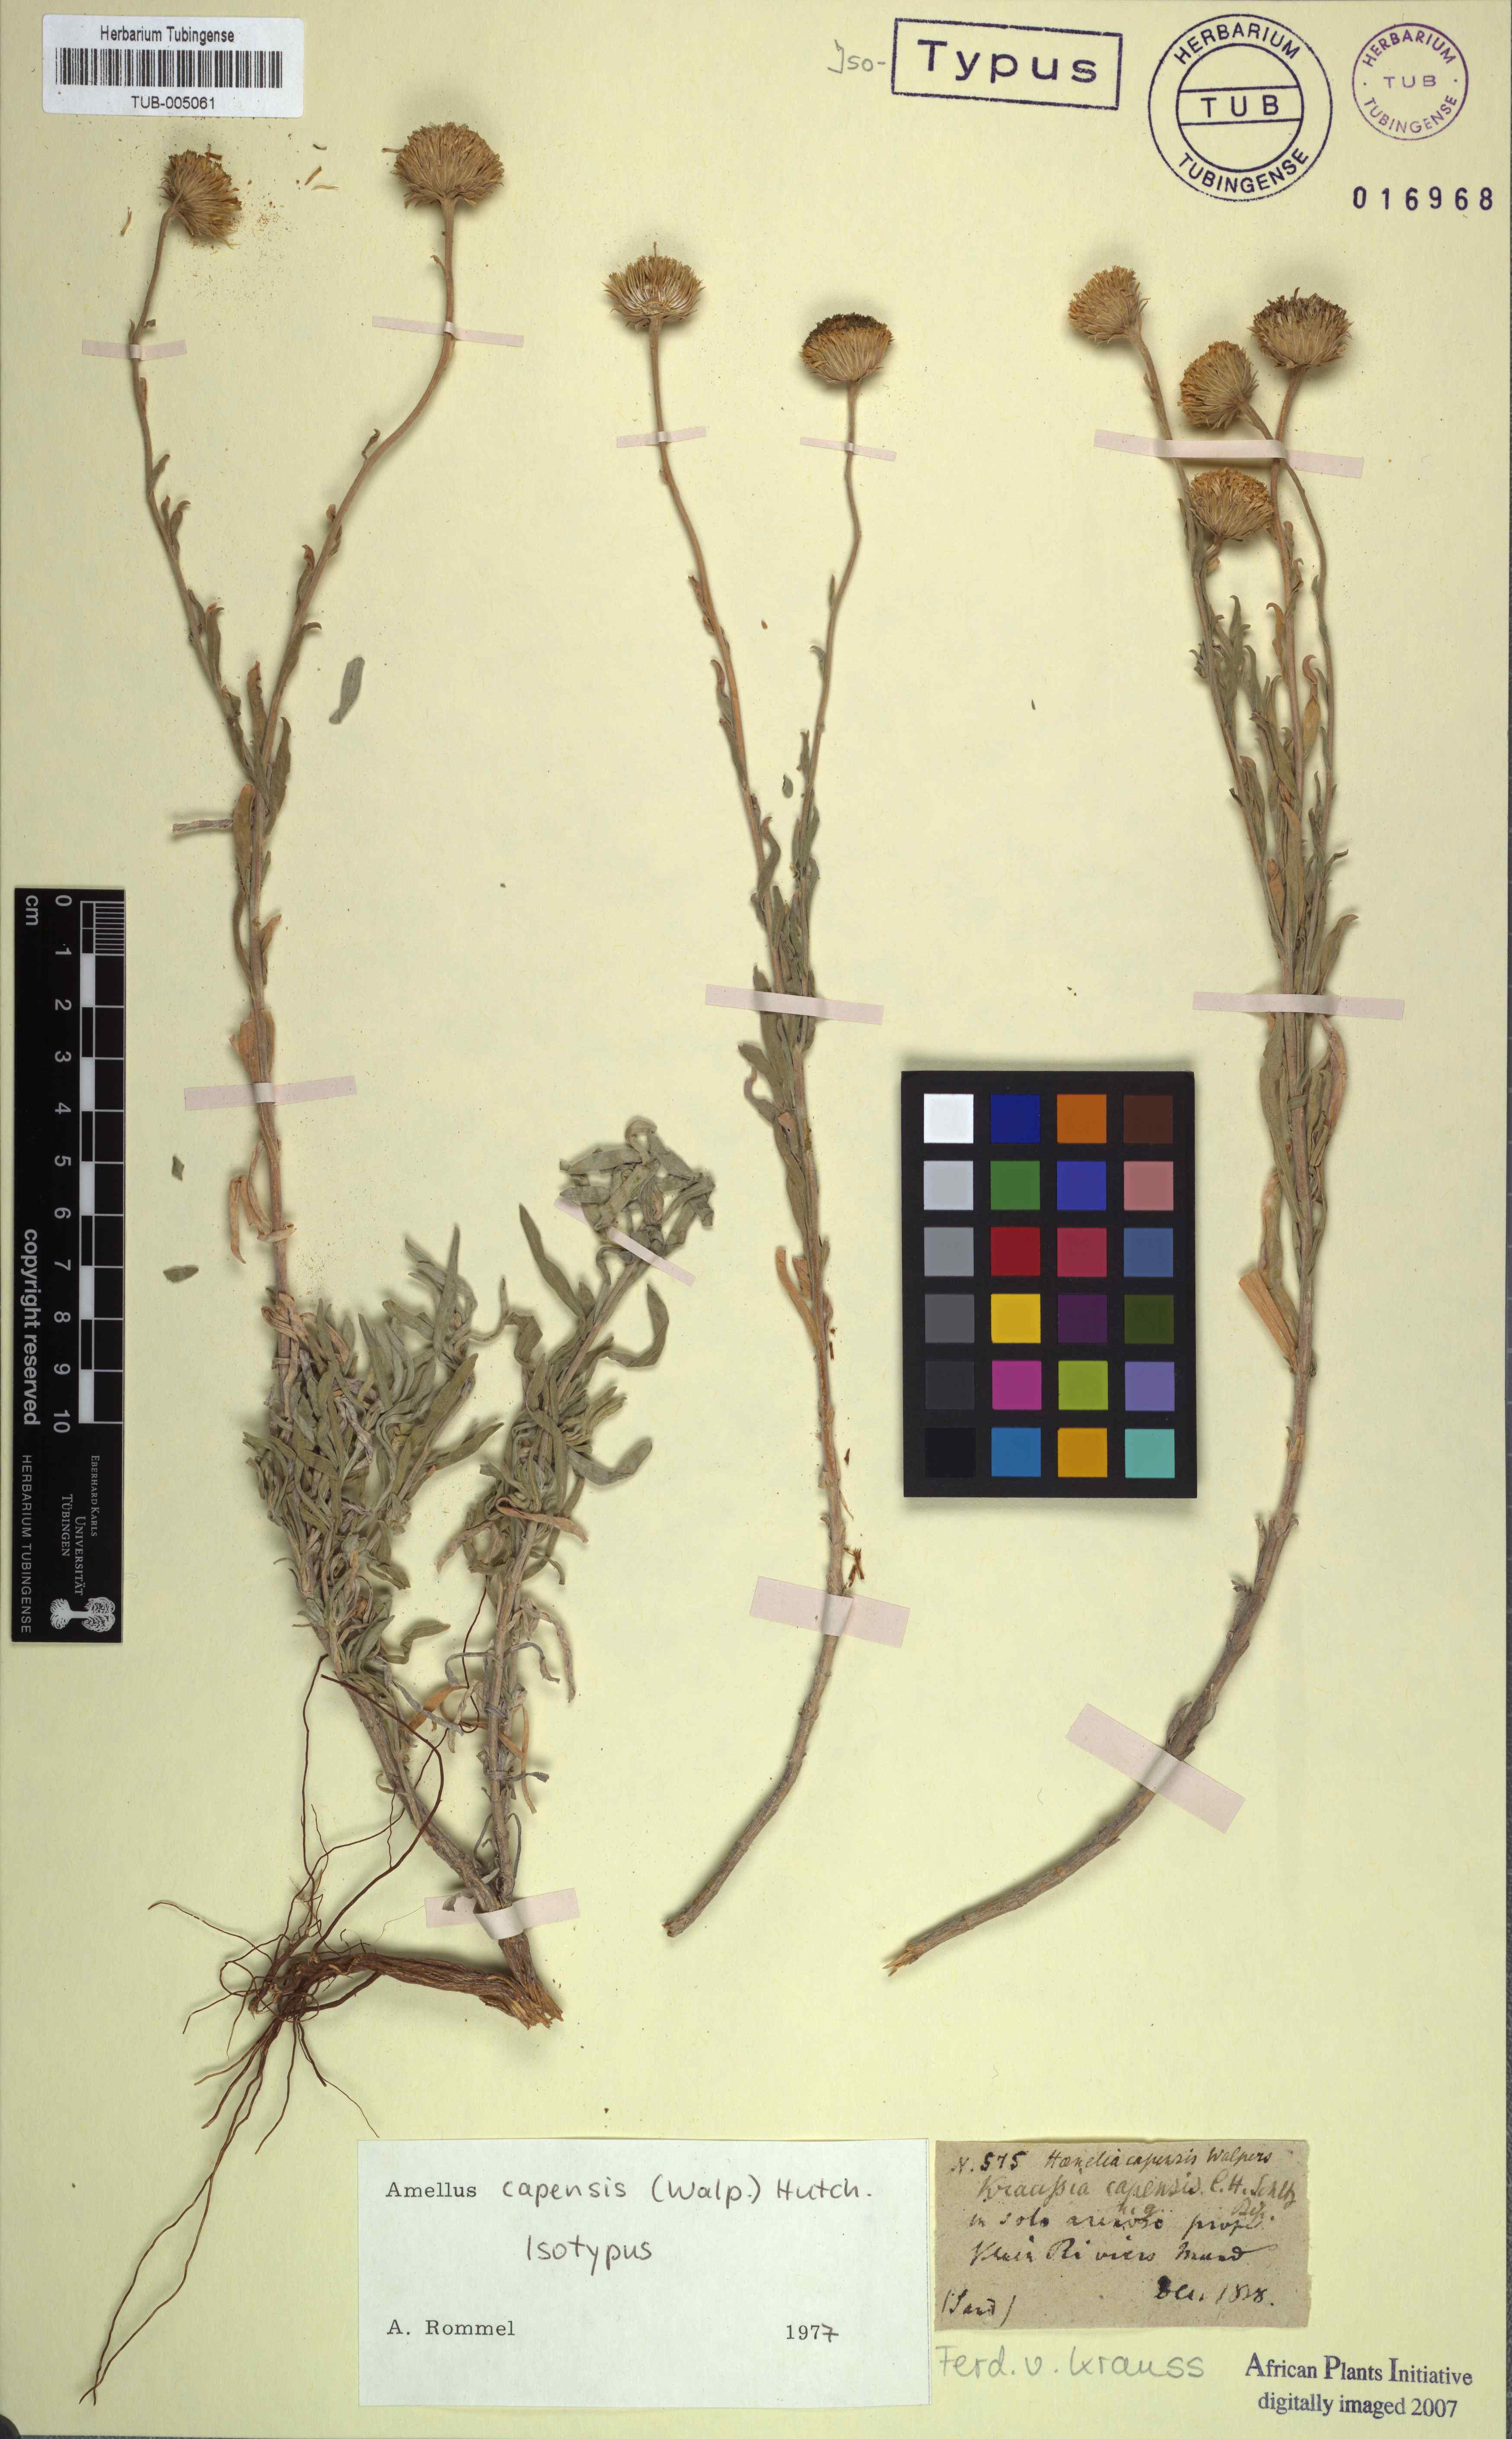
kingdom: Plantae
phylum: Tracheophyta
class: Magnoliopsida
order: Asterales
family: Asteraceae
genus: Amellus
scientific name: Amellus capensis
